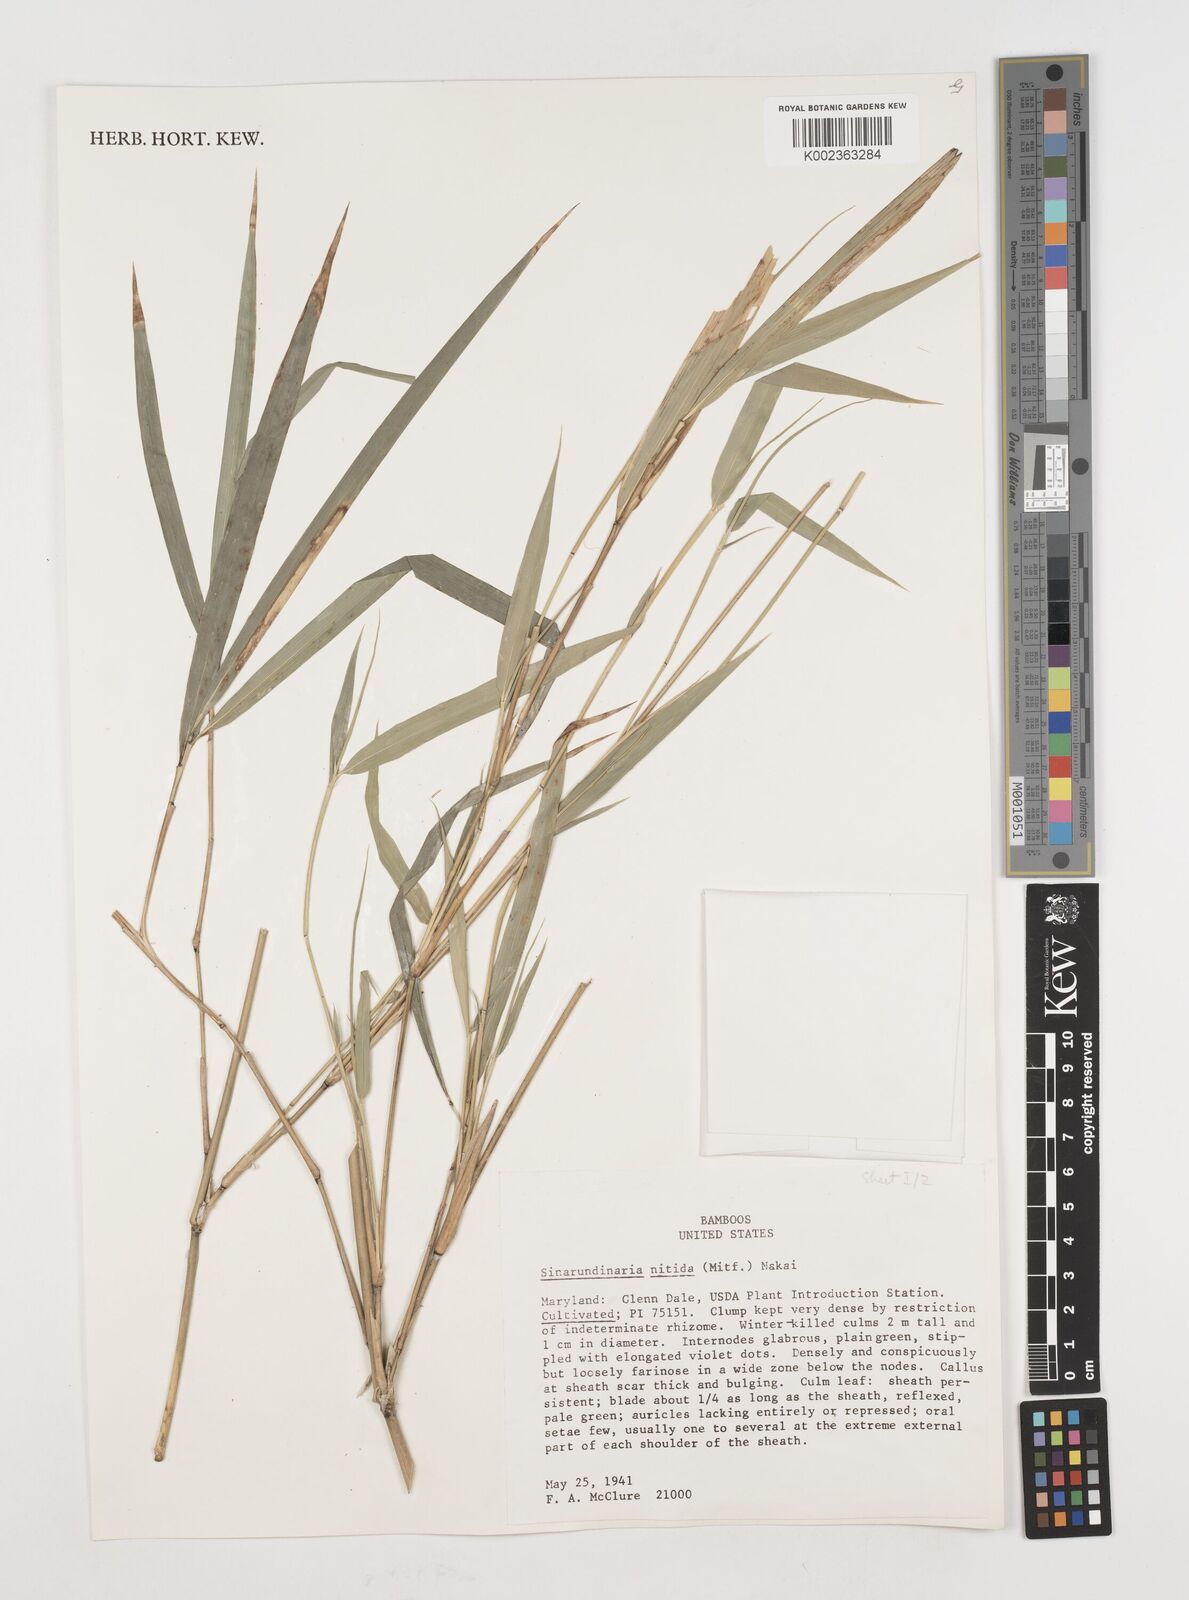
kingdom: Plantae
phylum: Tracheophyta
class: Liliopsida
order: Poales
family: Poaceae
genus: Fargesia
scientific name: Fargesia nitida ex
